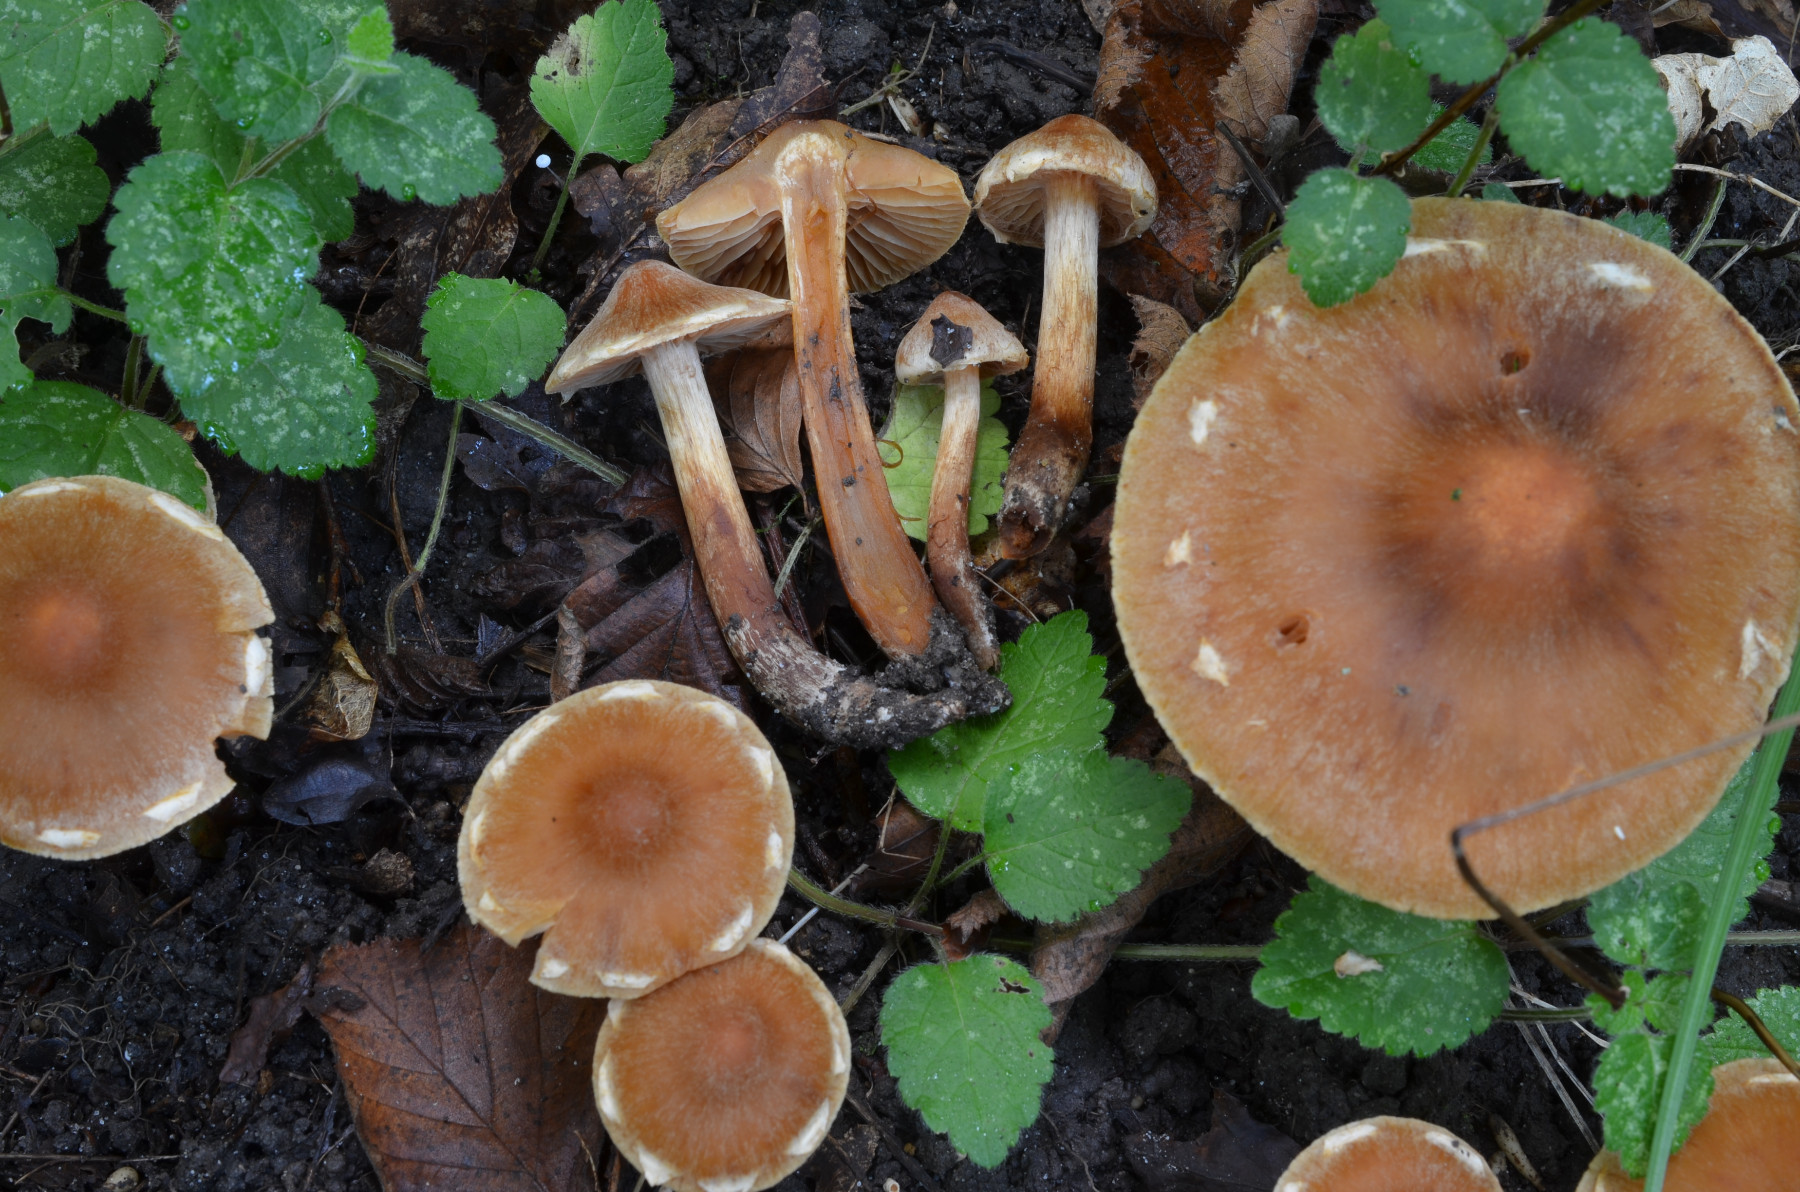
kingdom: Fungi
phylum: Basidiomycota
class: Agaricomycetes
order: Agaricales
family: Cortinariaceae
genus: Cortinarius
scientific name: Cortinarius roseonudipes
